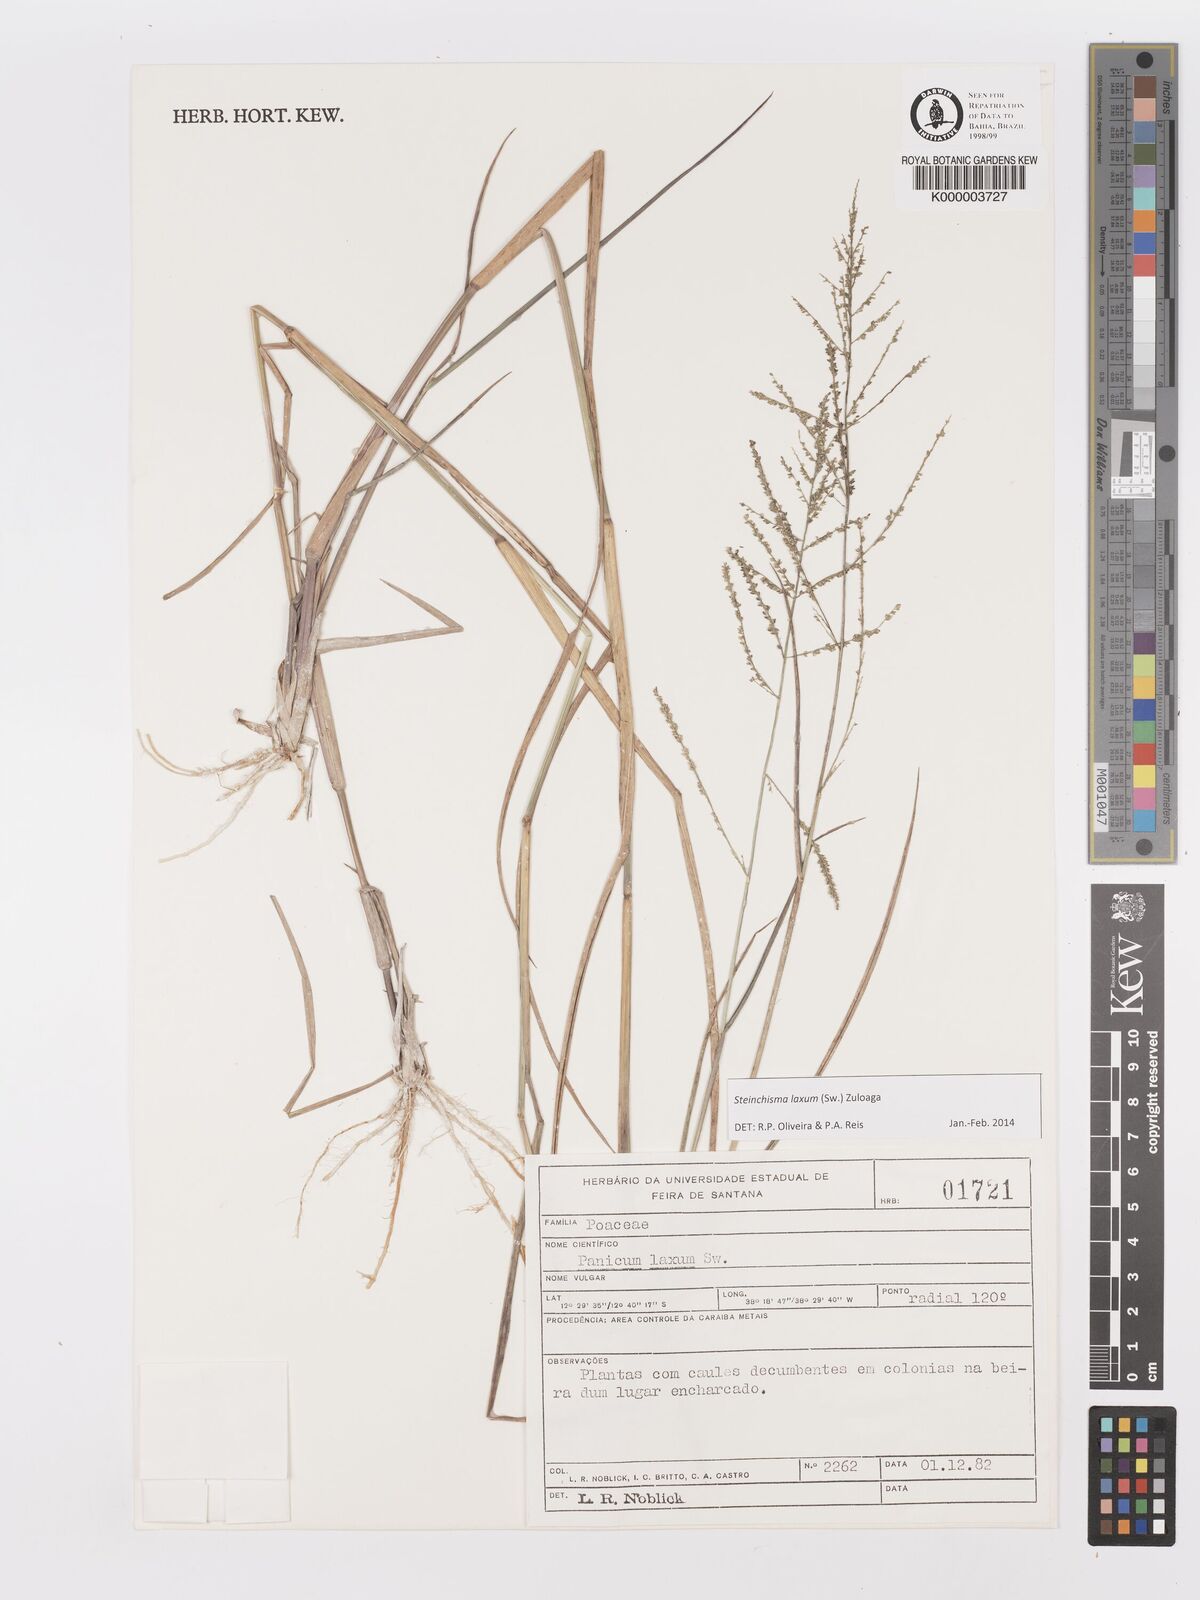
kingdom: Plantae
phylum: Tracheophyta
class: Liliopsida
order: Poales
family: Poaceae
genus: Panicum
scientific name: Panicum
